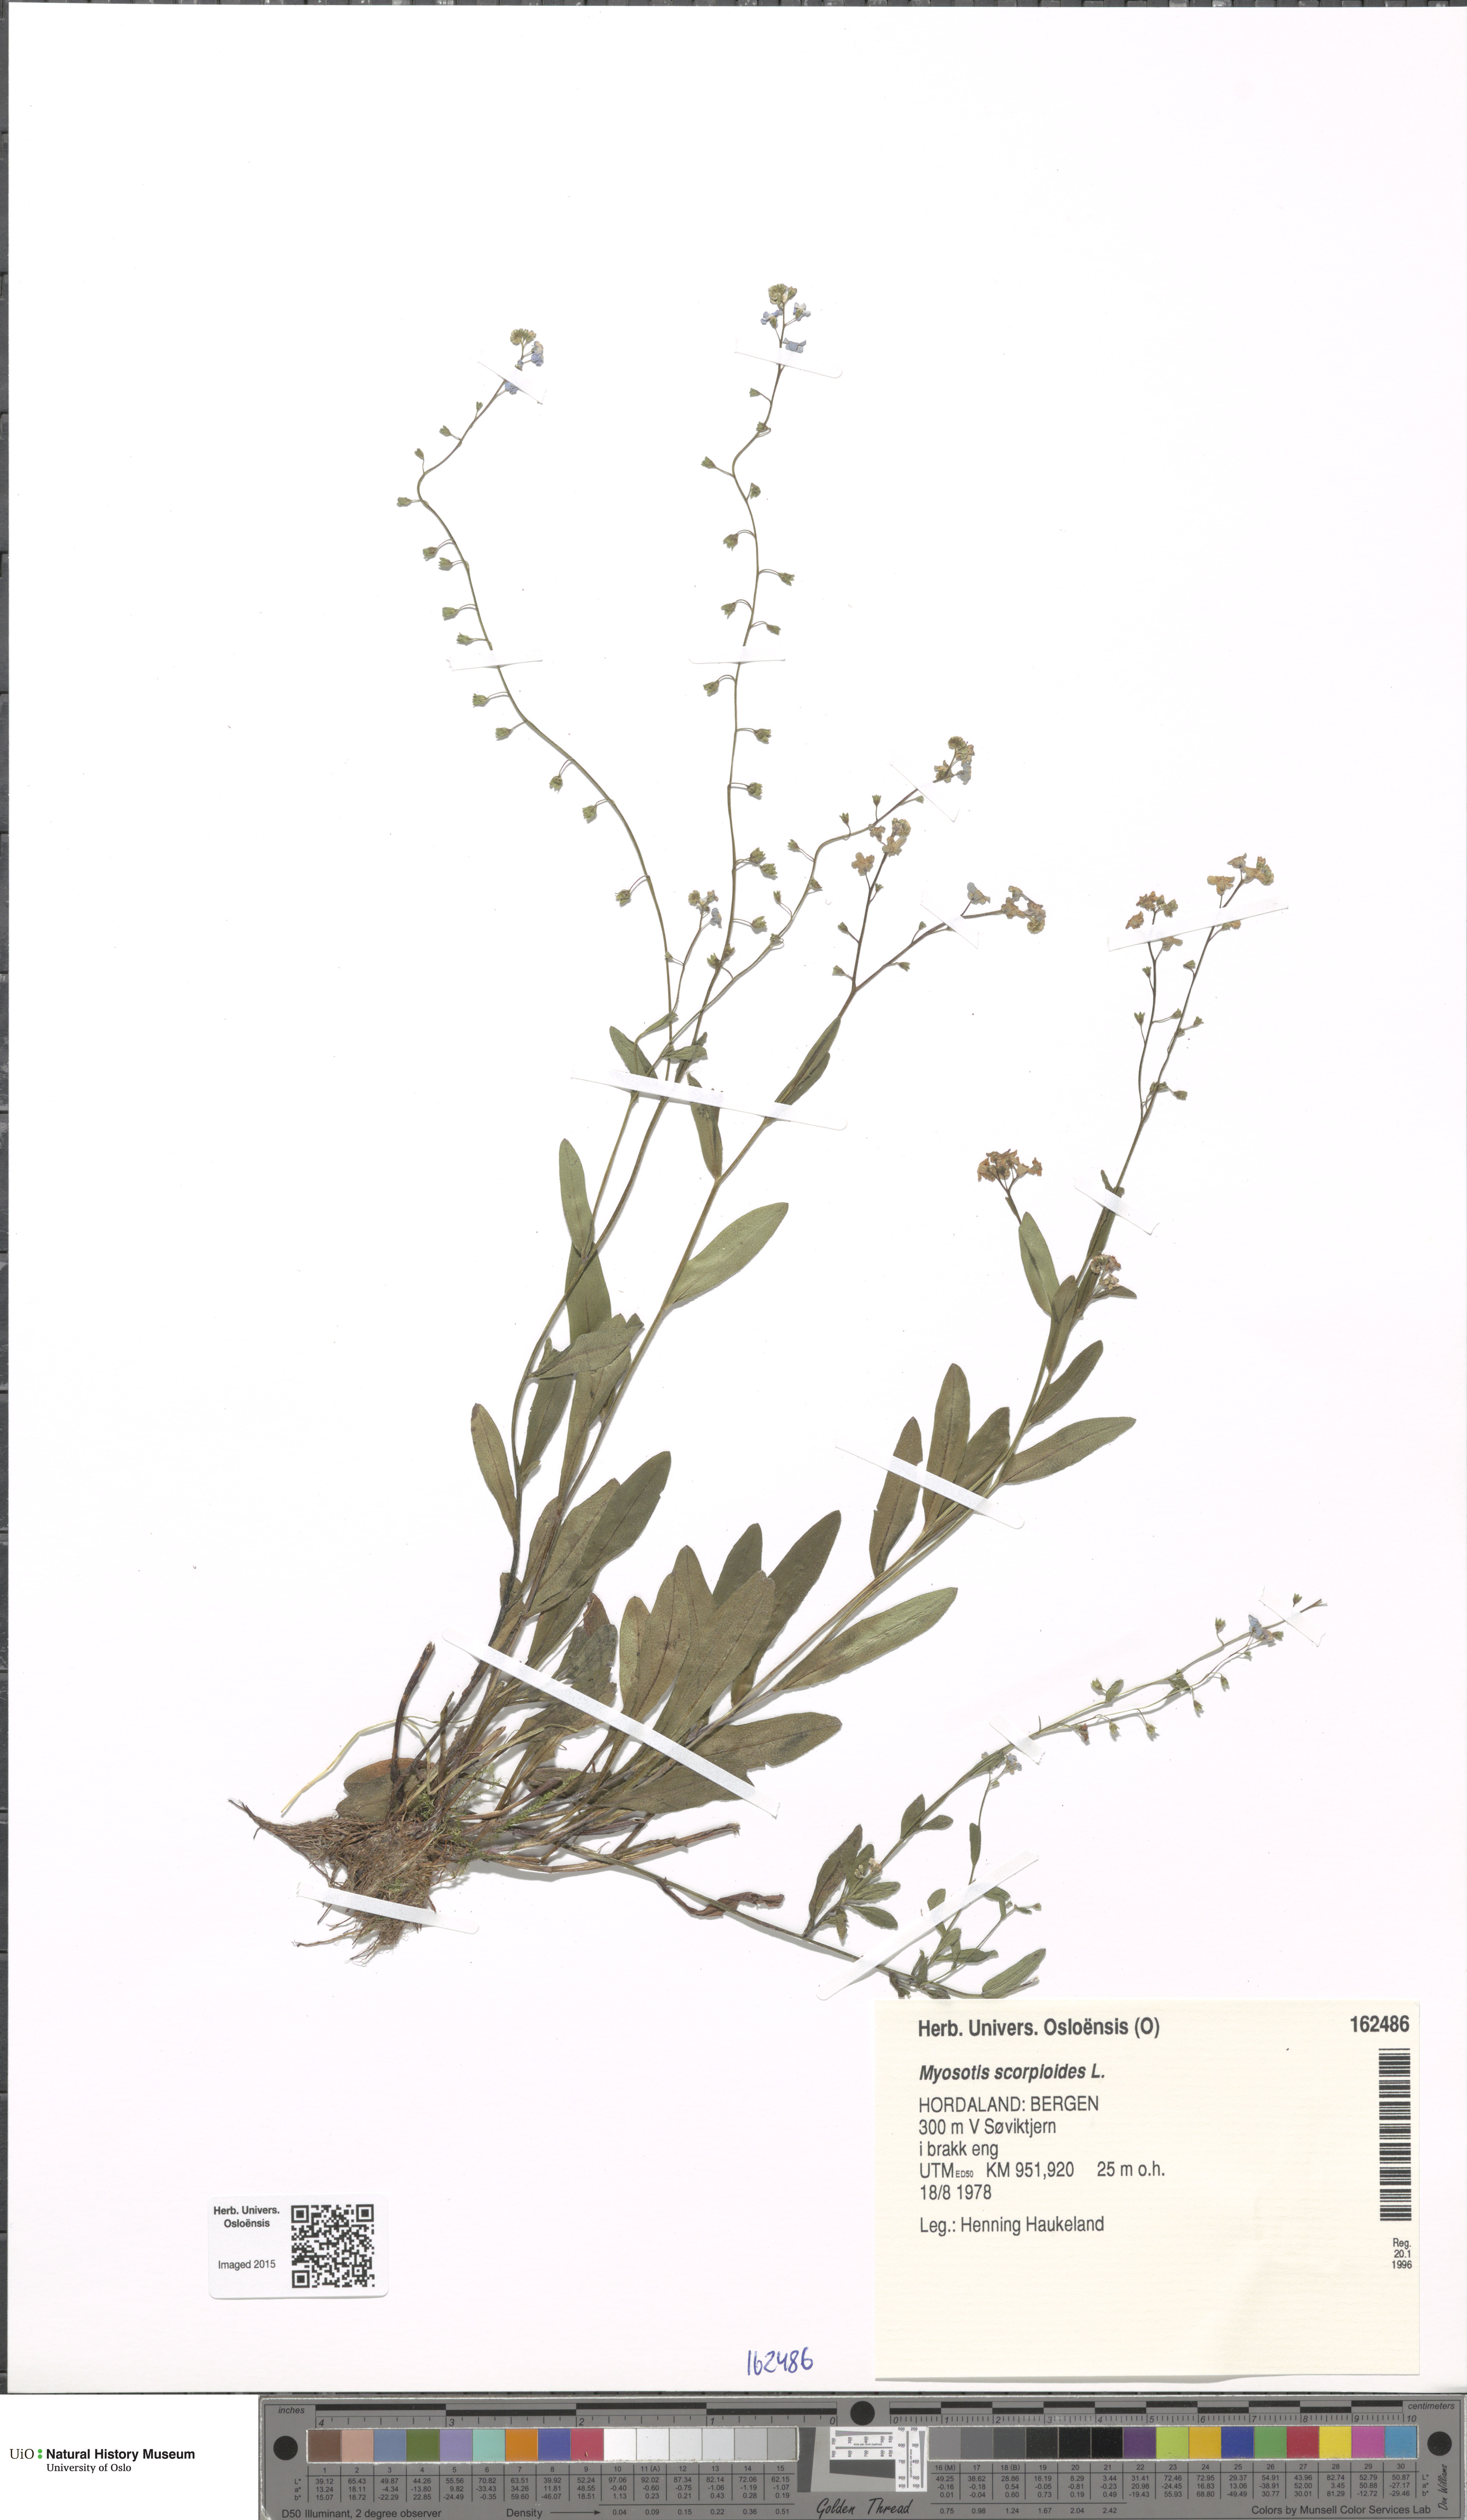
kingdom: Plantae
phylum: Tracheophyta
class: Magnoliopsida
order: Boraginales
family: Boraginaceae
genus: Myosotis
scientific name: Myosotis scorpioides
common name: Water forget-me-not
